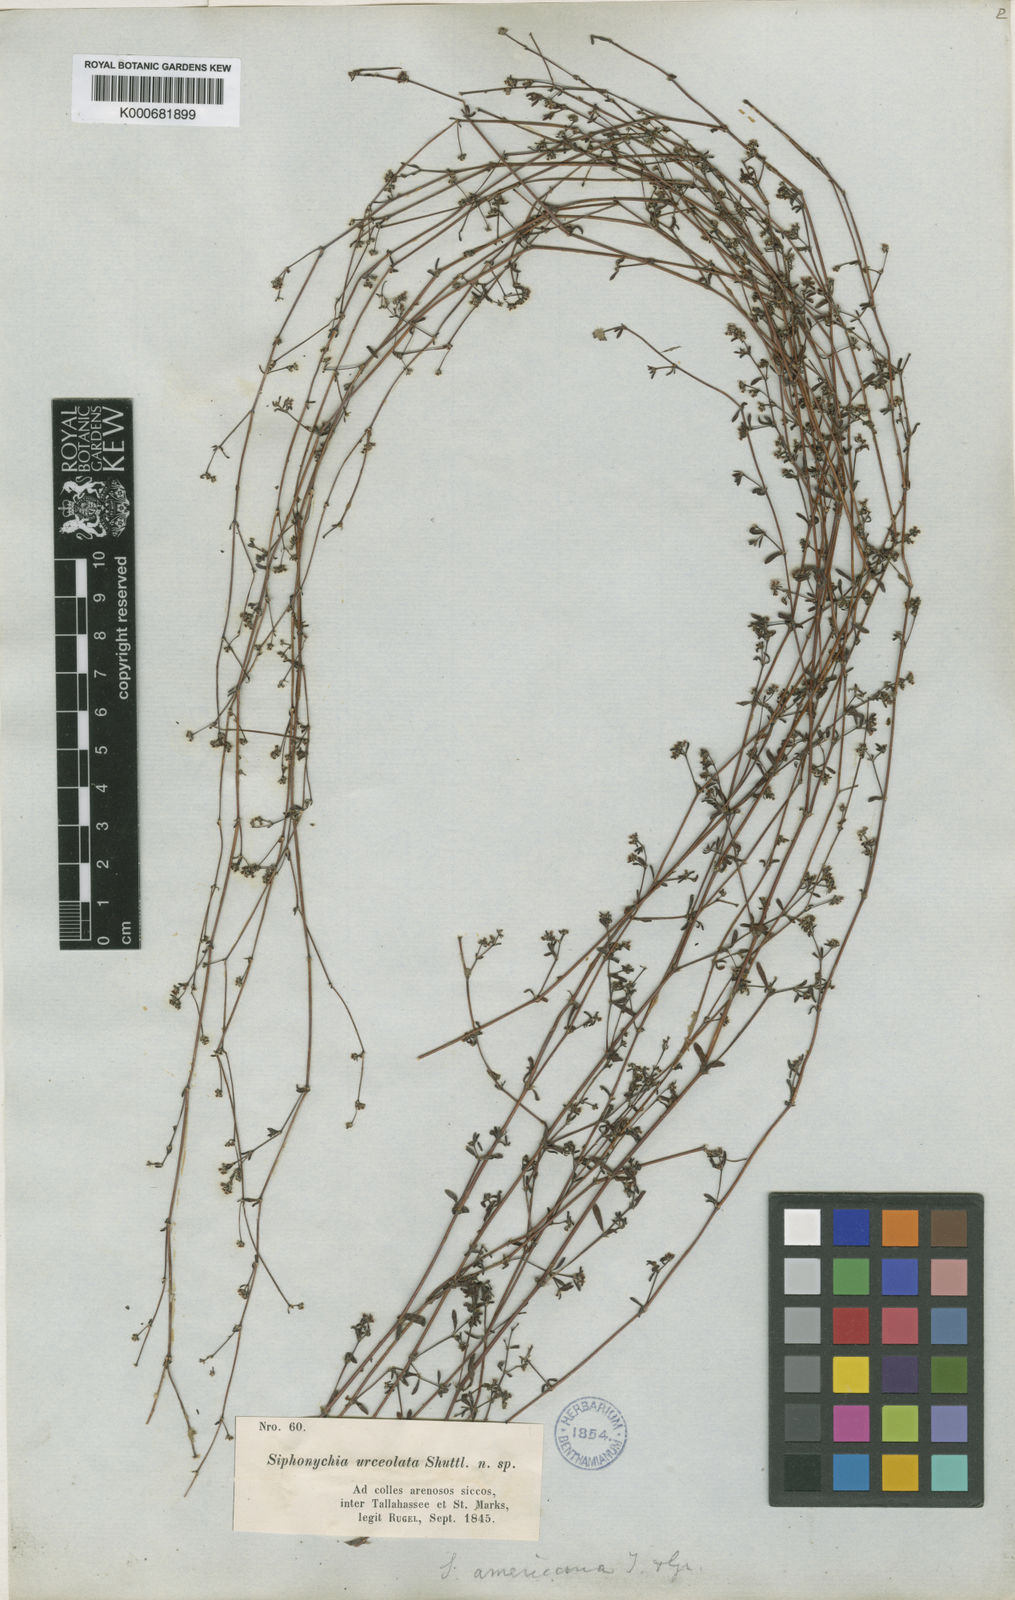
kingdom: Plantae
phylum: Tracheophyta
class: Magnoliopsida
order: Caryophyllales
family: Caryophyllaceae
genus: Paronychia
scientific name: Paronychia americana
